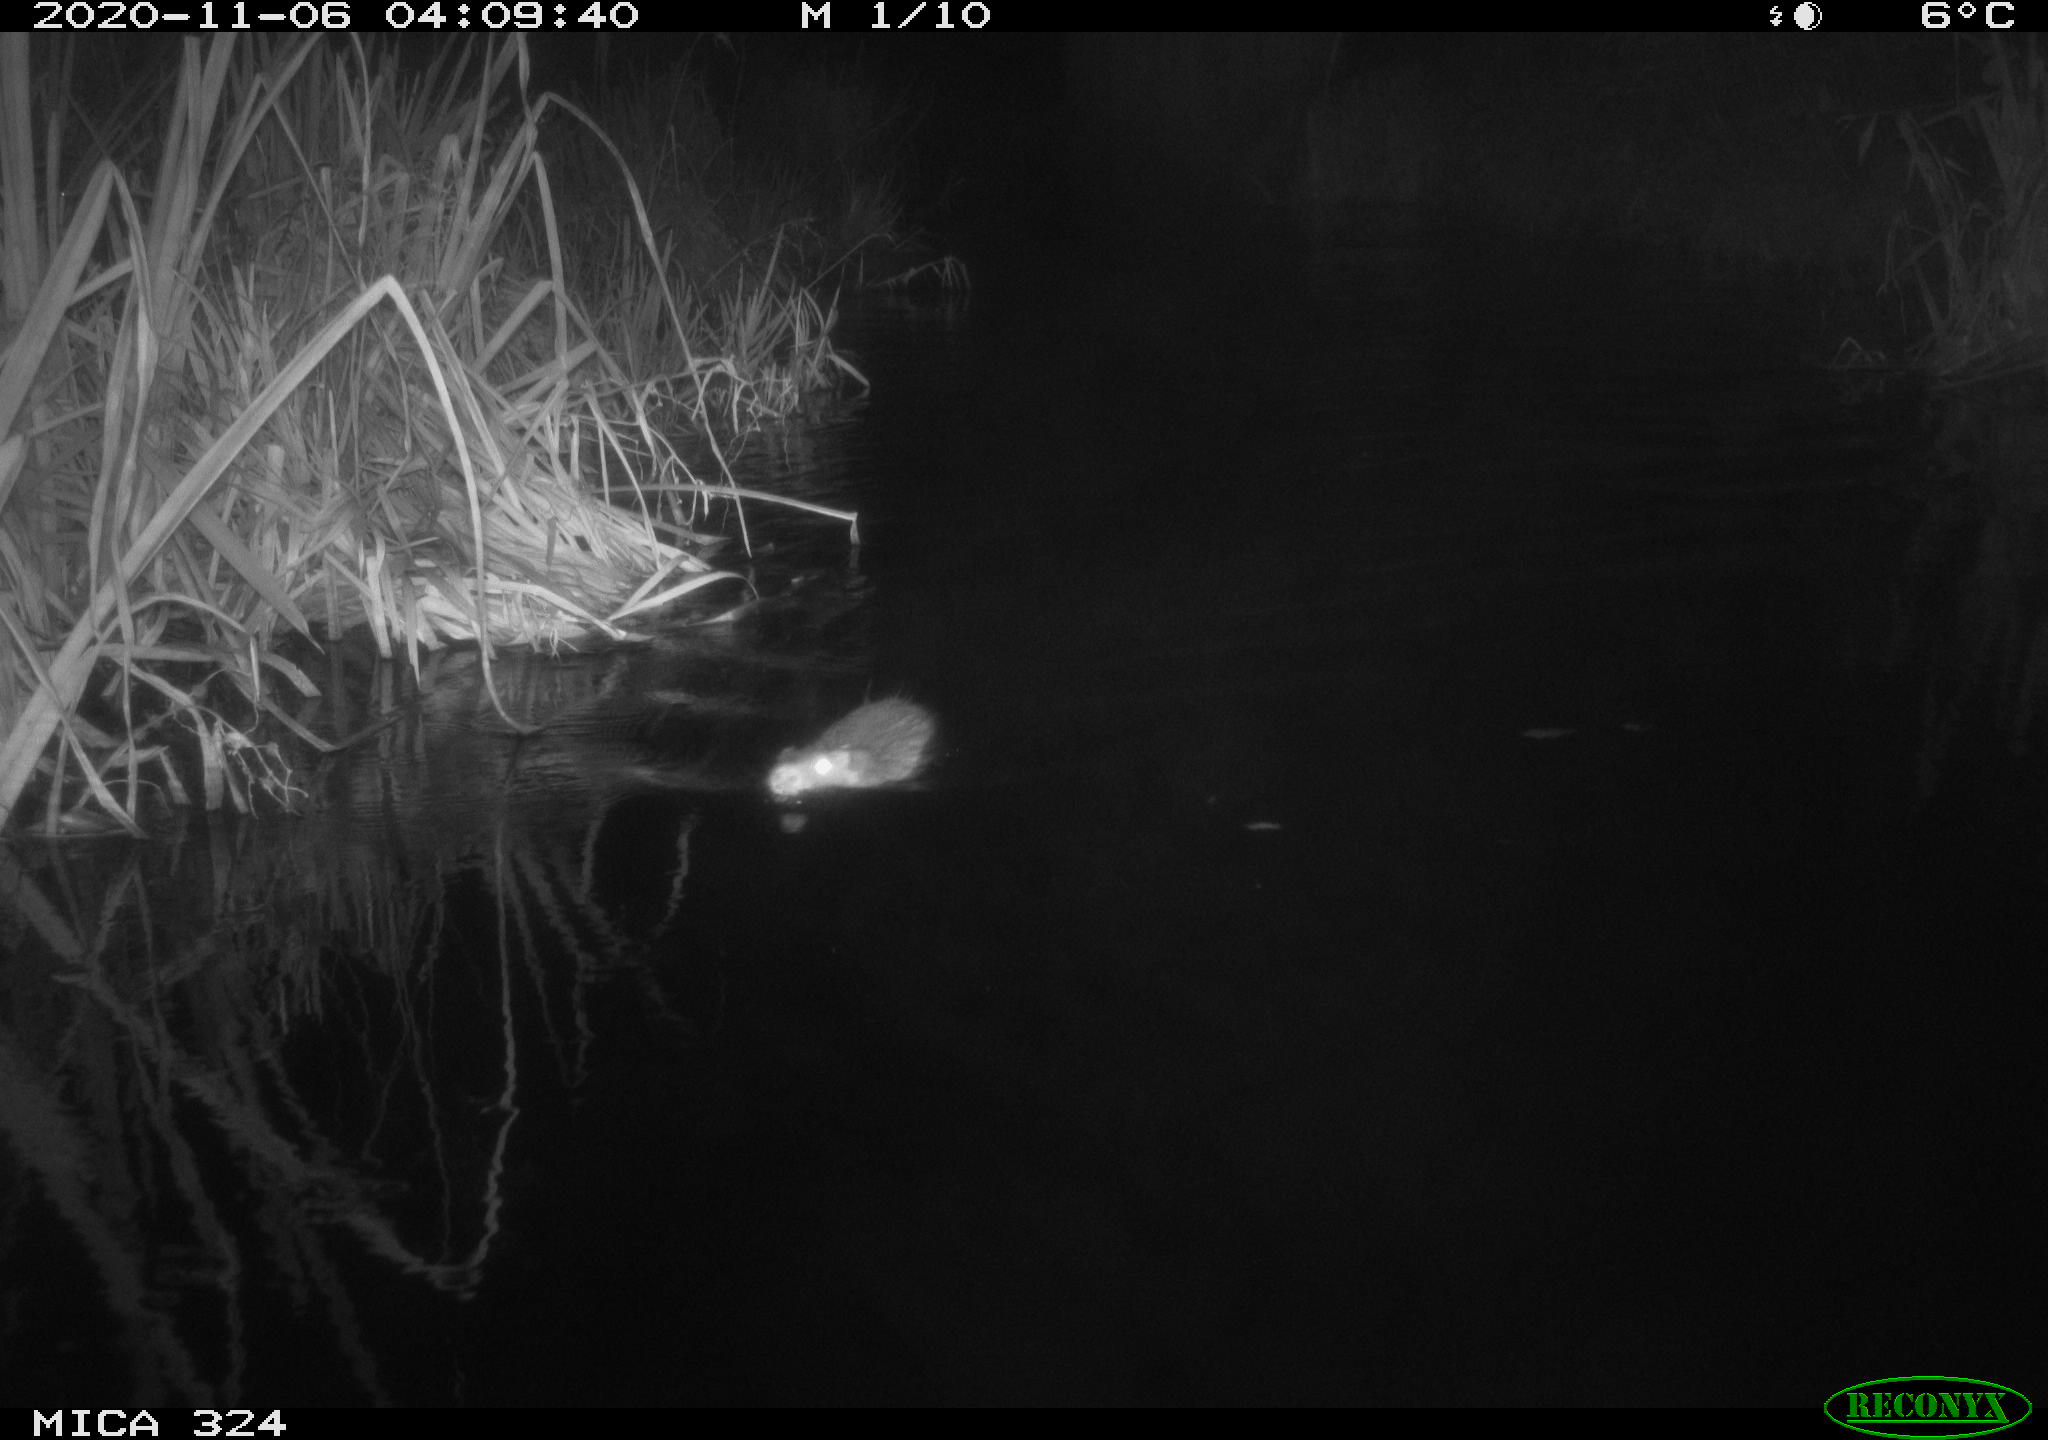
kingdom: Animalia
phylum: Chordata
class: Mammalia
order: Rodentia
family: Myocastoridae
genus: Myocastor
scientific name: Myocastor coypus
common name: Coypu
